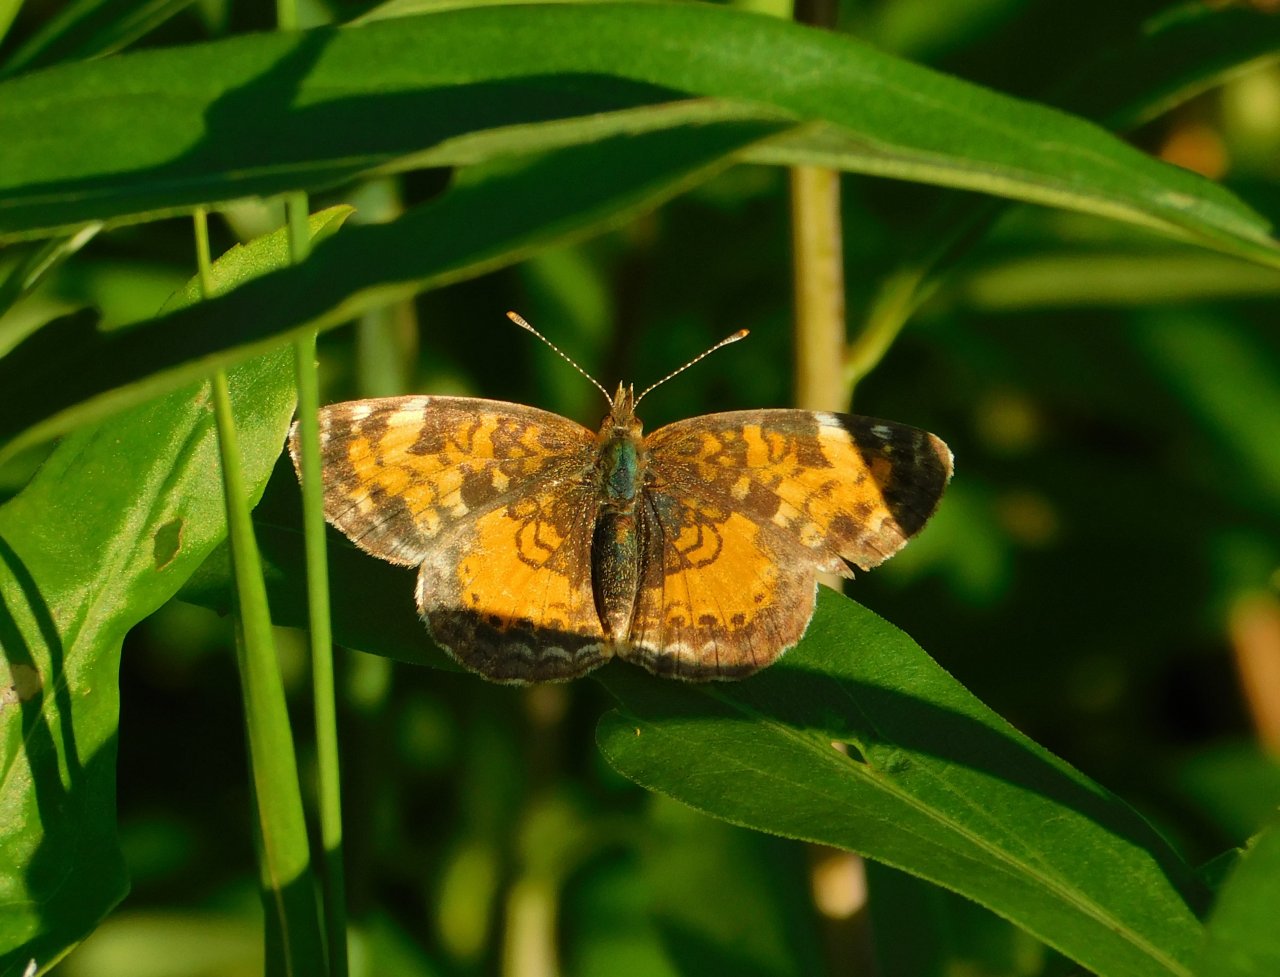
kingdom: Animalia
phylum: Arthropoda
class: Insecta
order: Lepidoptera
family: Nymphalidae
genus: Phyciodes
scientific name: Phyciodes tharos
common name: Northern Crescent
